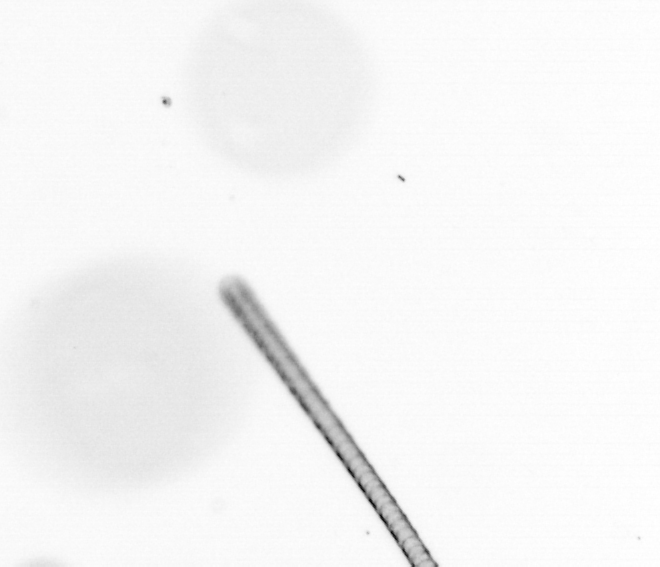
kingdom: Chromista
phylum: Ochrophyta
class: Bacillariophyceae
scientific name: Bacillariophyceae
